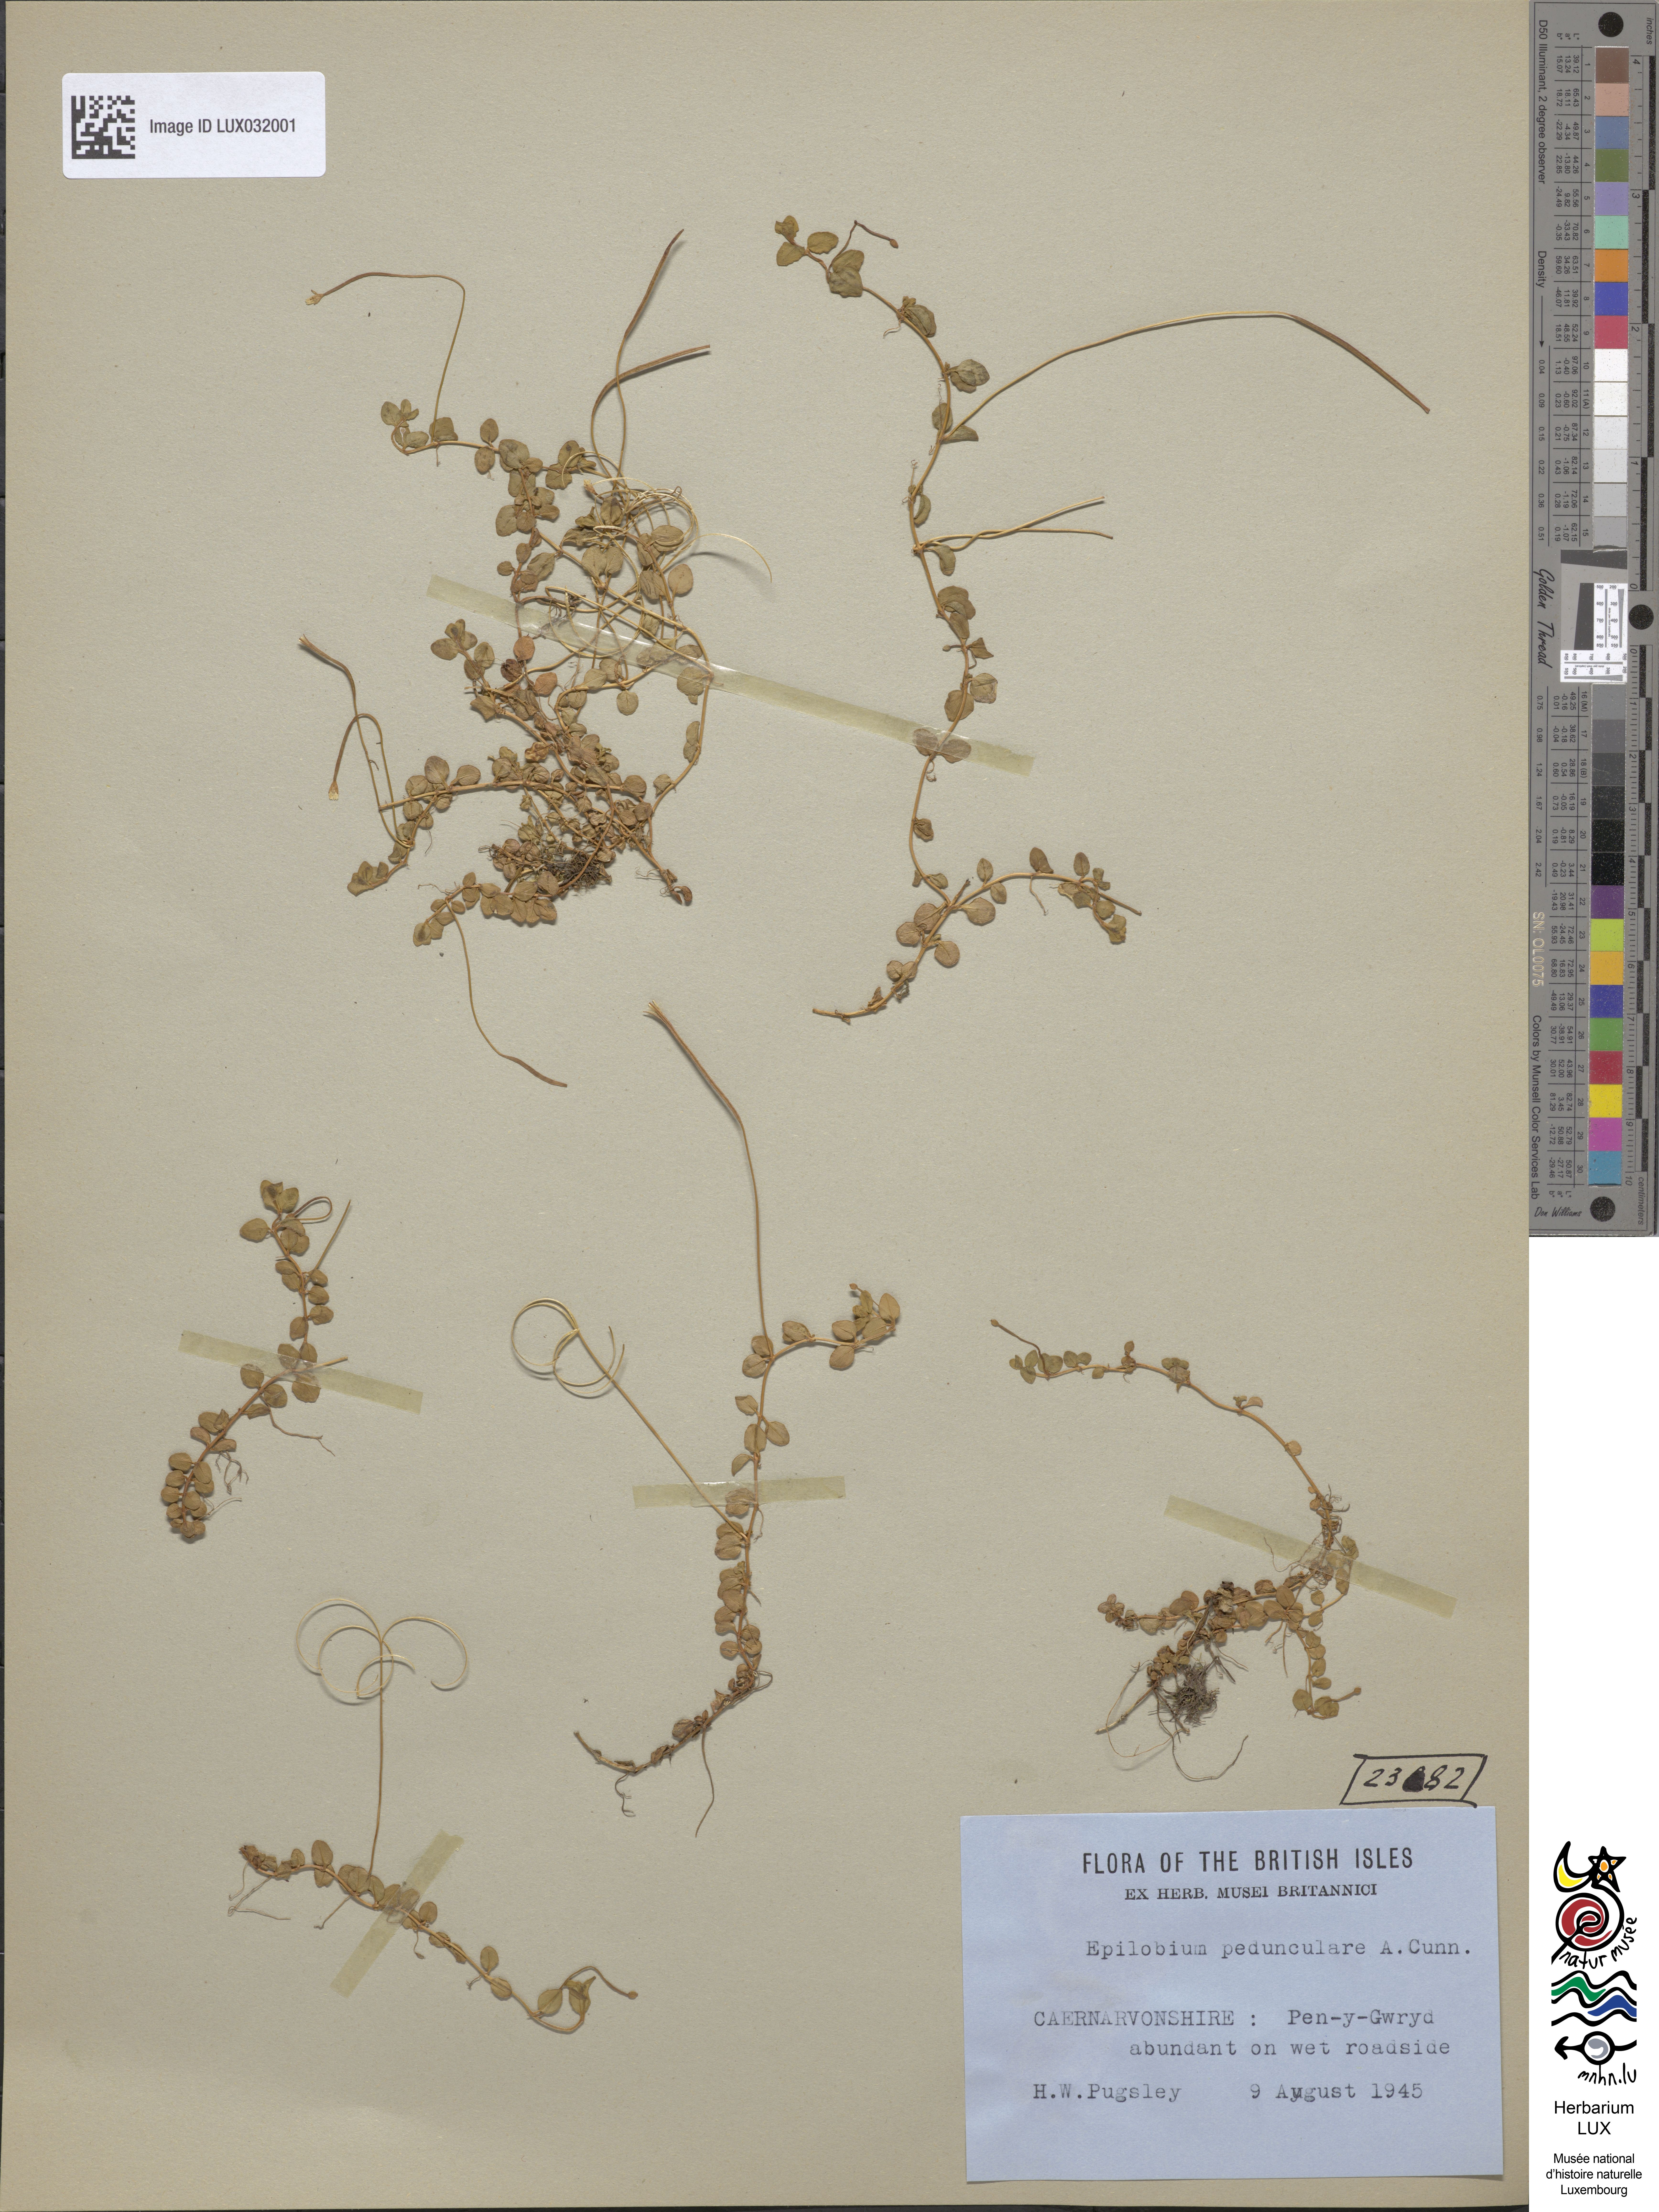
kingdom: Plantae
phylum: Tracheophyta
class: Magnoliopsida
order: Myrtales
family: Onagraceae
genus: Epilobium
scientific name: Epilobium pedunculare
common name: Rockery willowherb
